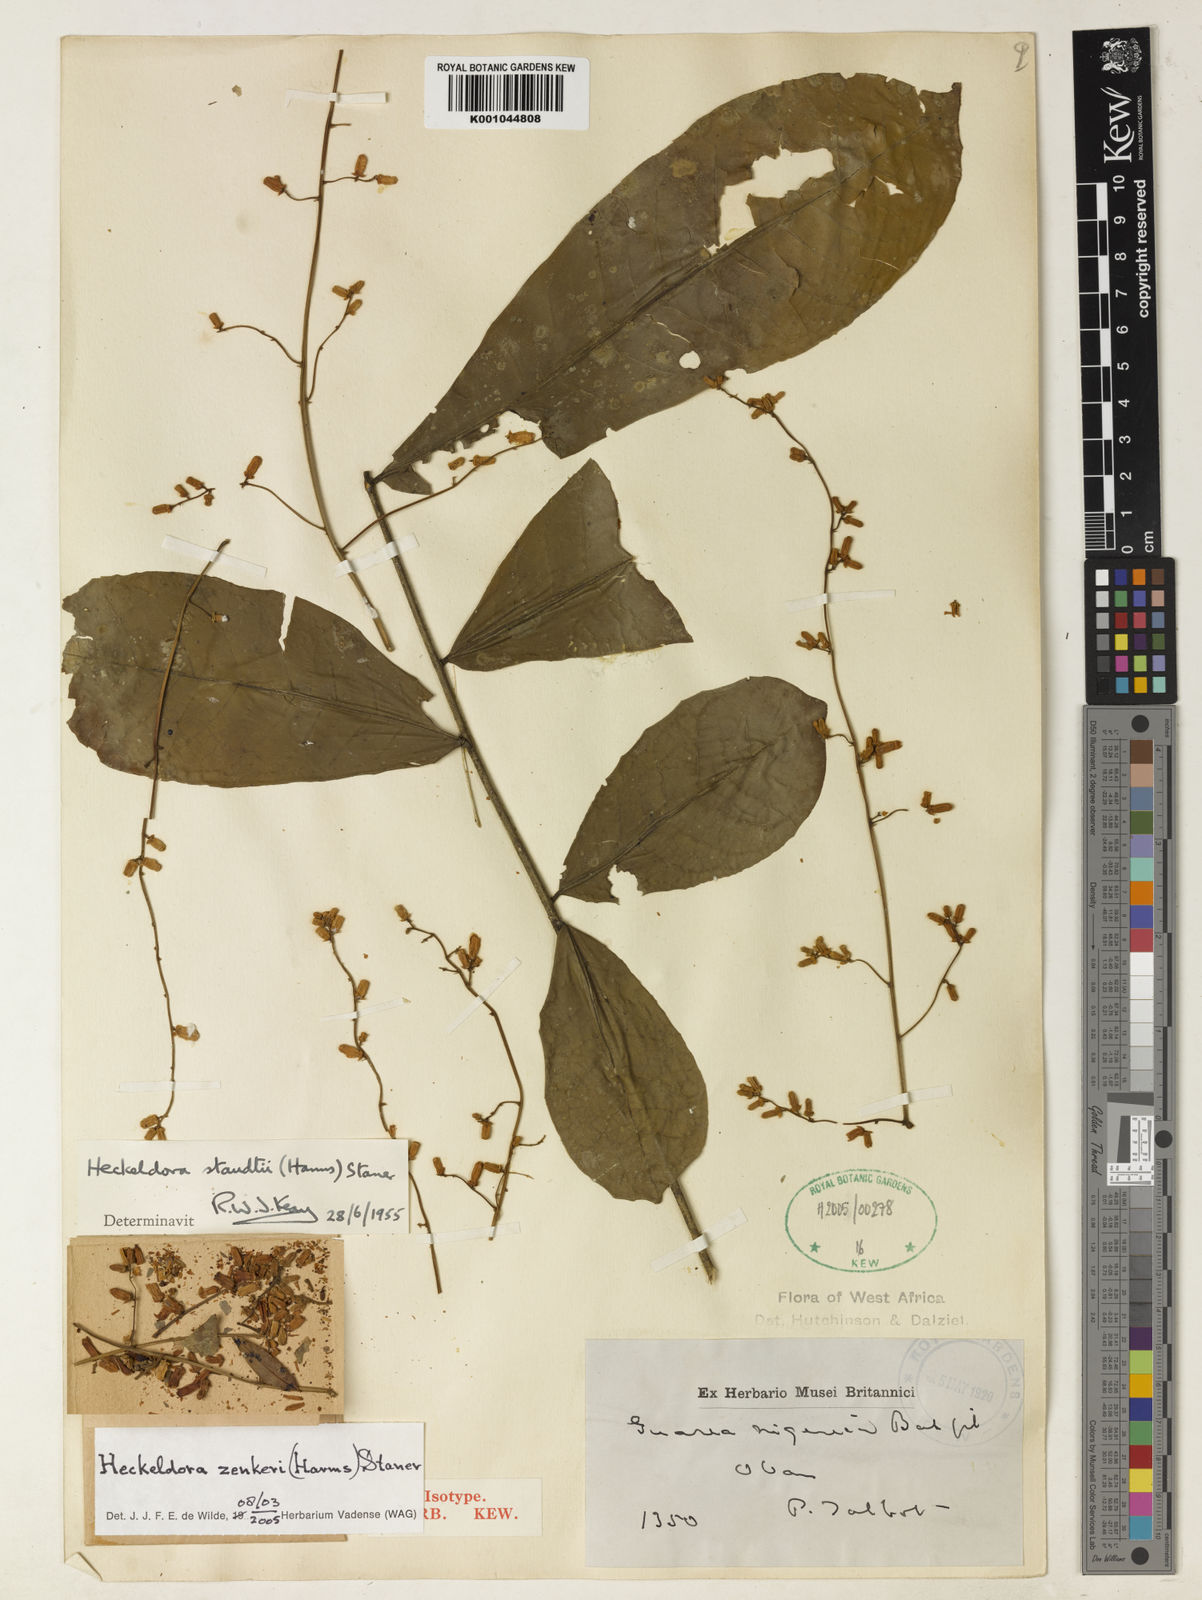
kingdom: Plantae
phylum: Tracheophyta
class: Magnoliopsida
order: Sapindales
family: Meliaceae
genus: Heckeldora
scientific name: Heckeldora zenkeri
